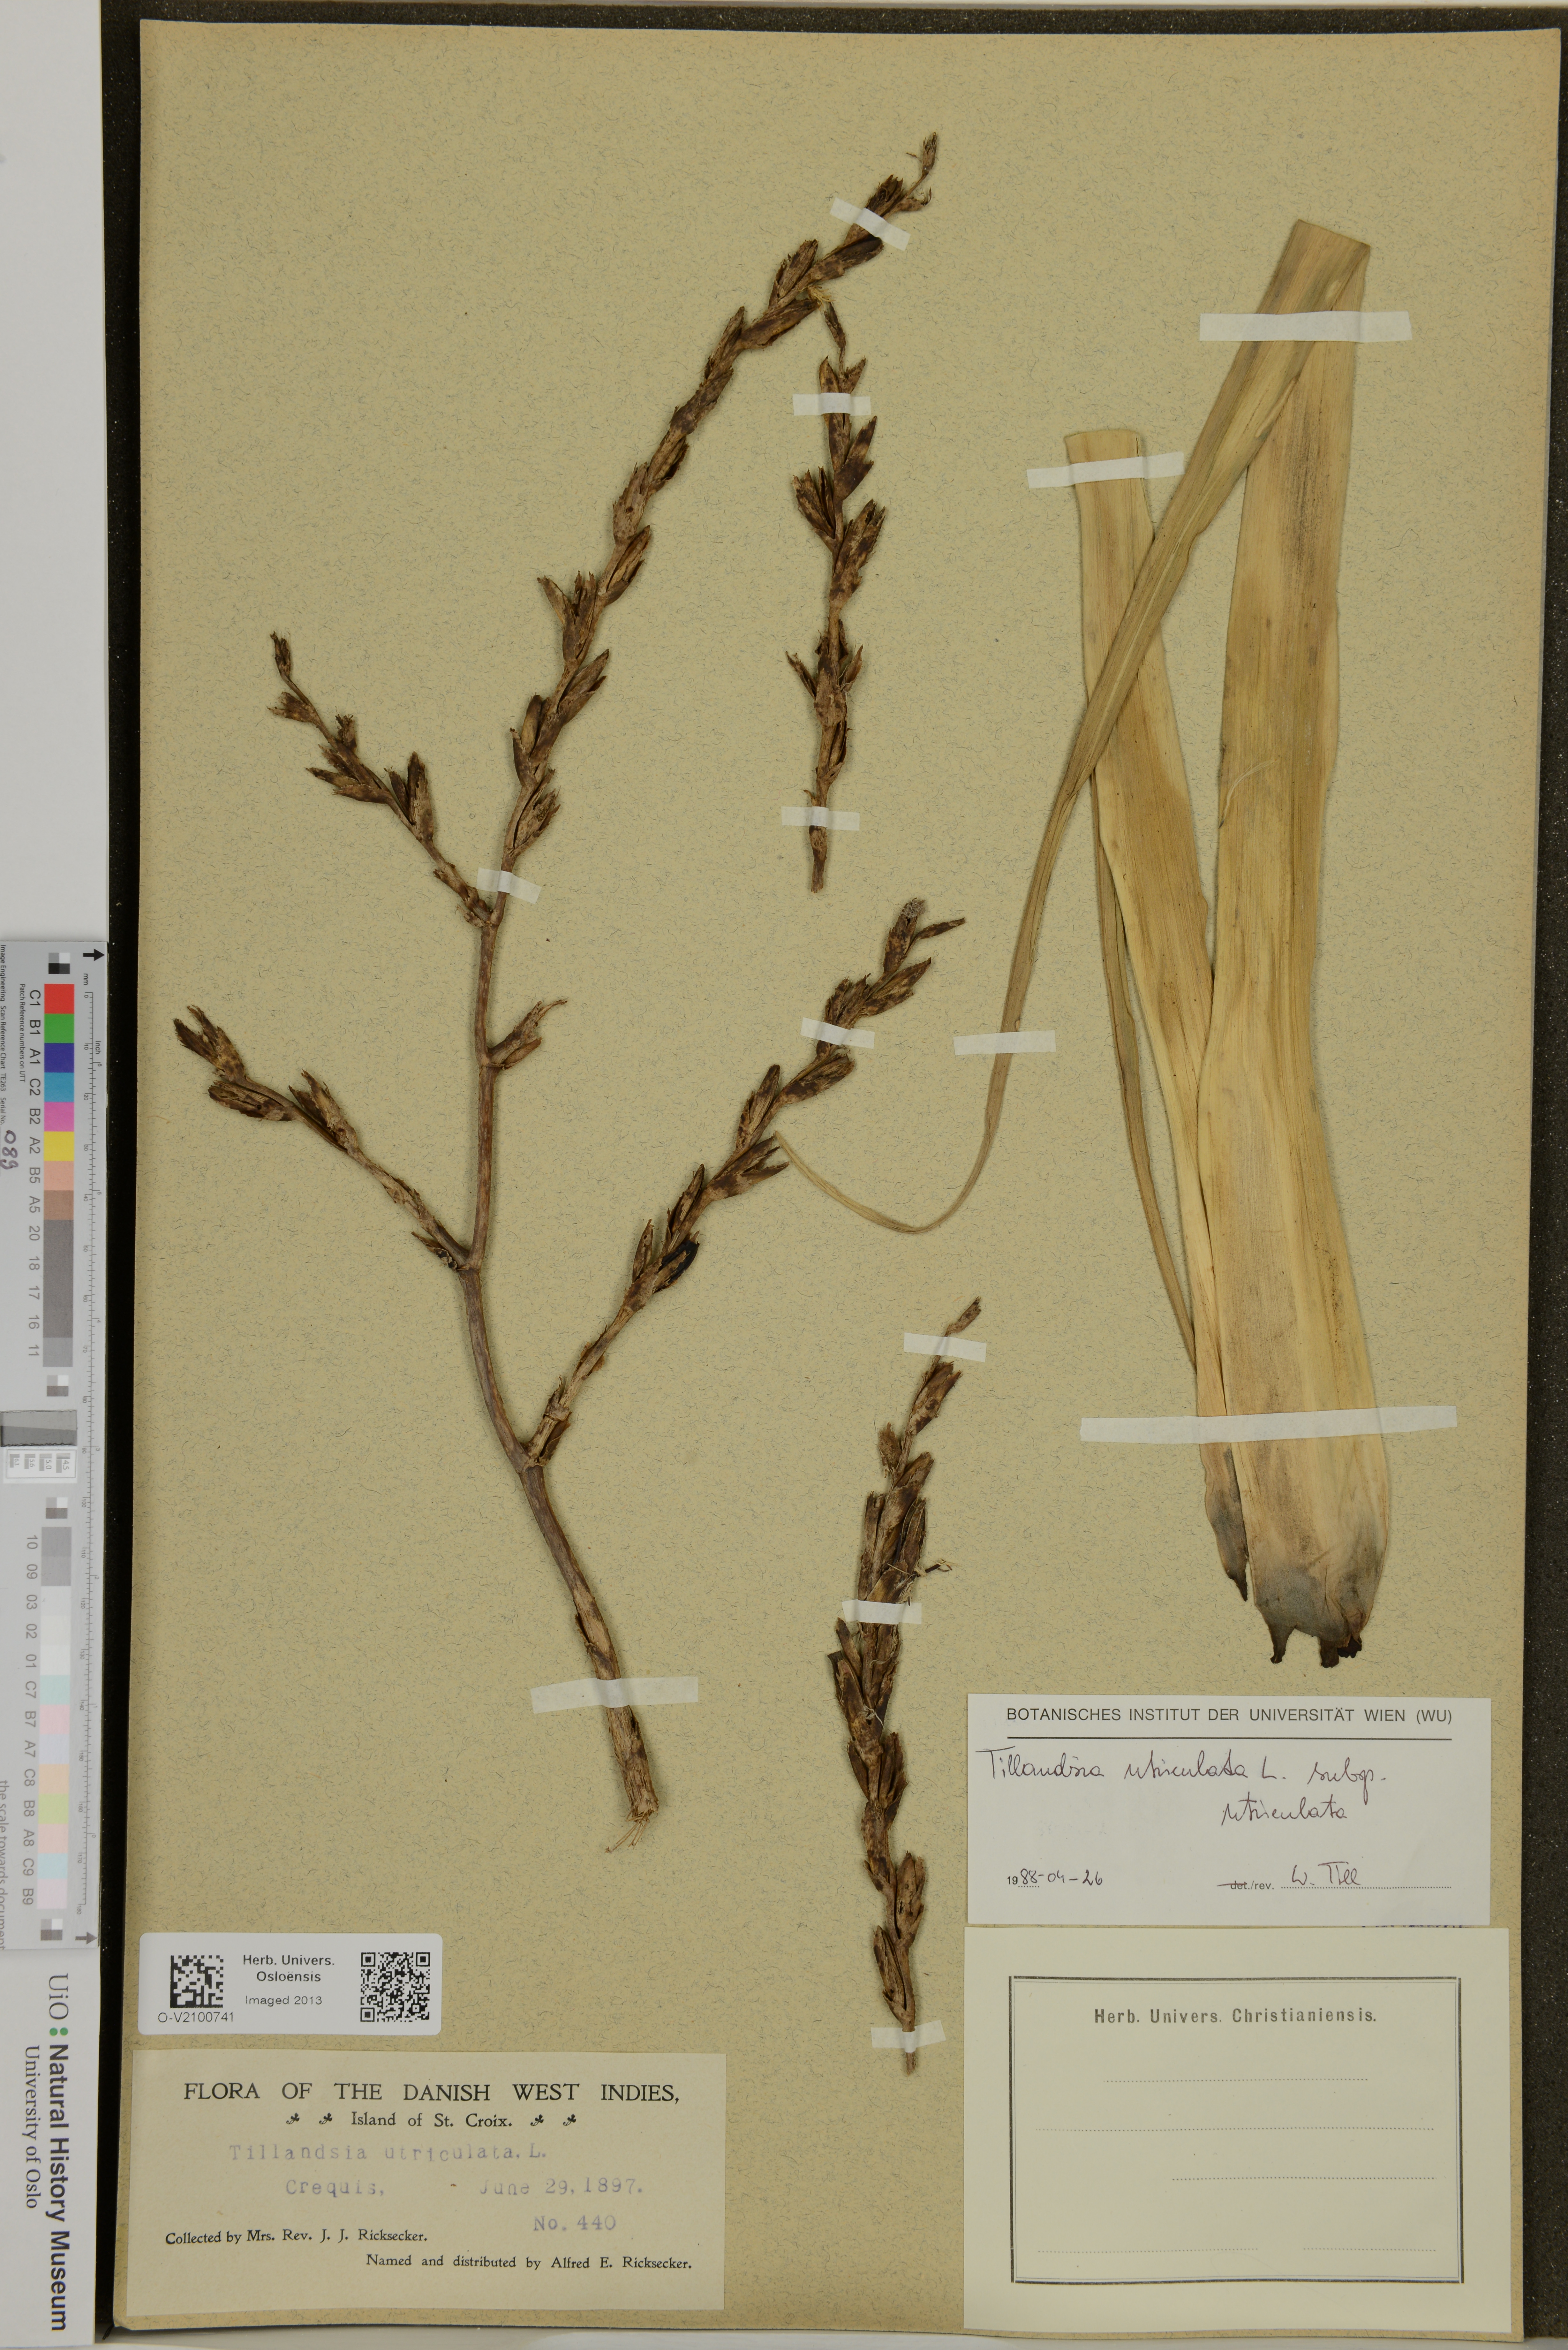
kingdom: Plantae
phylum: Tracheophyta
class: Liliopsida
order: Poales
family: Bromeliaceae
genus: Tillandsia
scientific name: Tillandsia utriculata
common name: Wild pine
